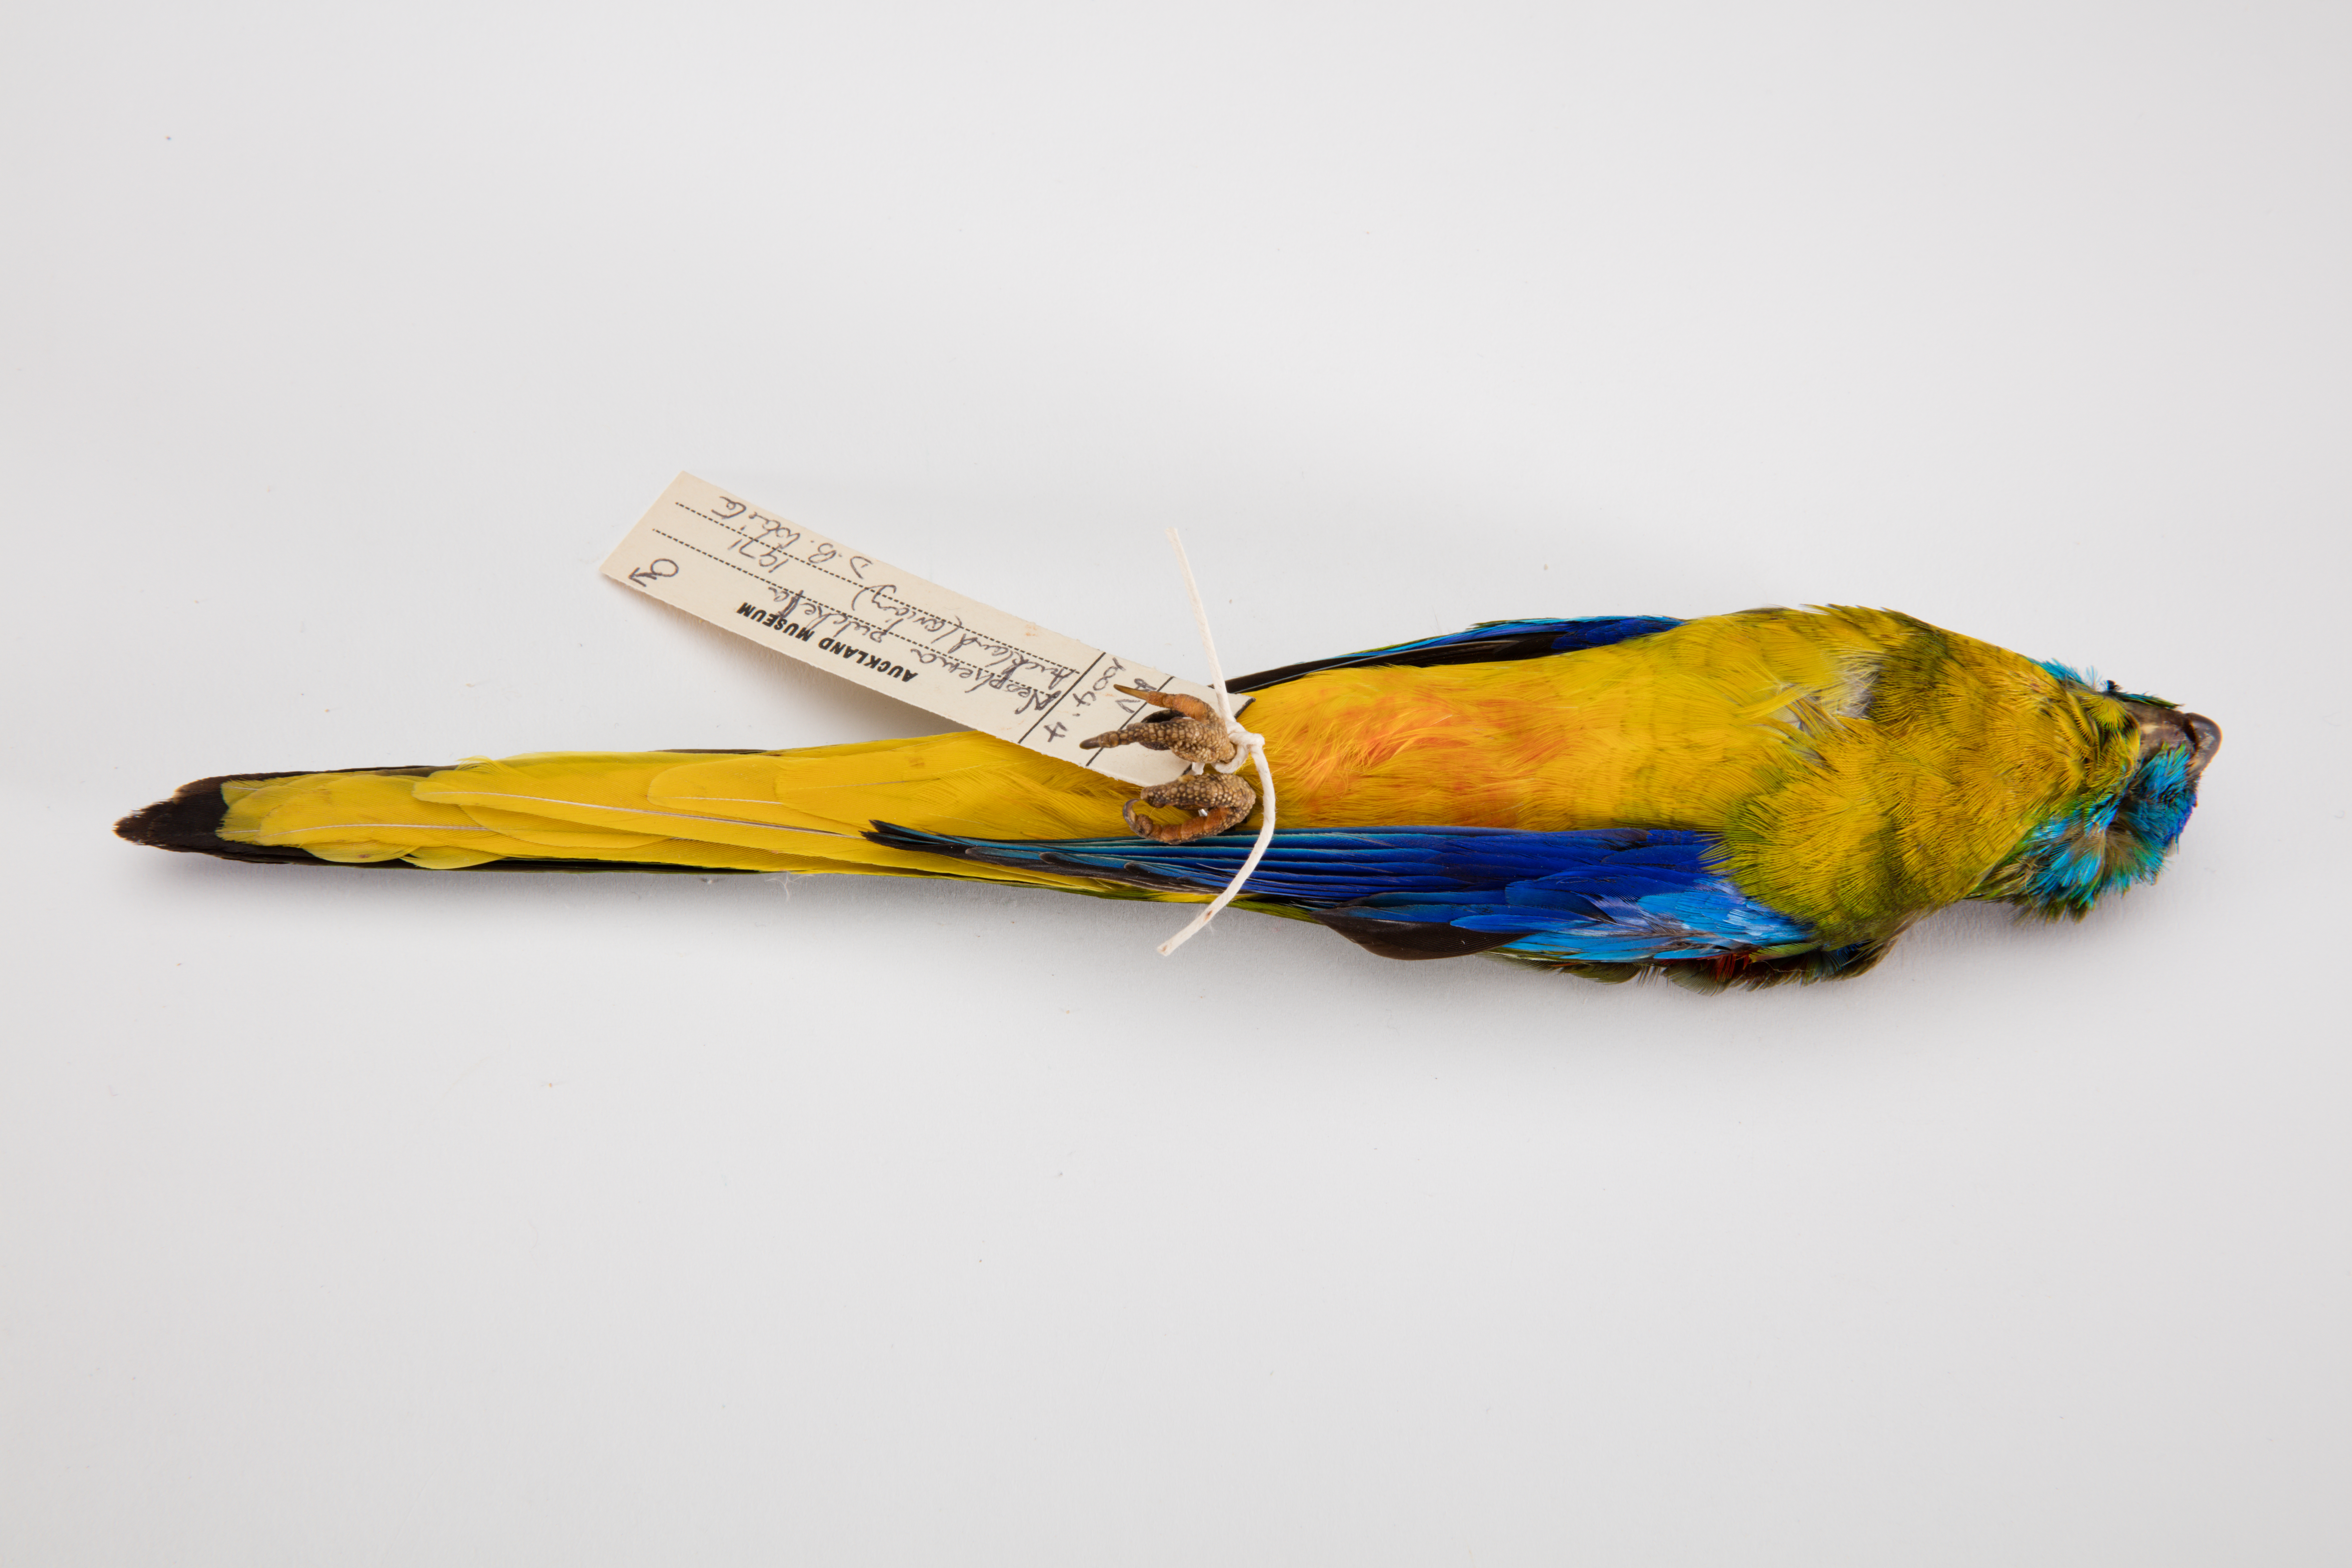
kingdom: Animalia
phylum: Chordata
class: Aves
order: Psittaciformes
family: Psittacidae
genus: Neophema
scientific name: Neophema pulchella
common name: Turquoise parrot
